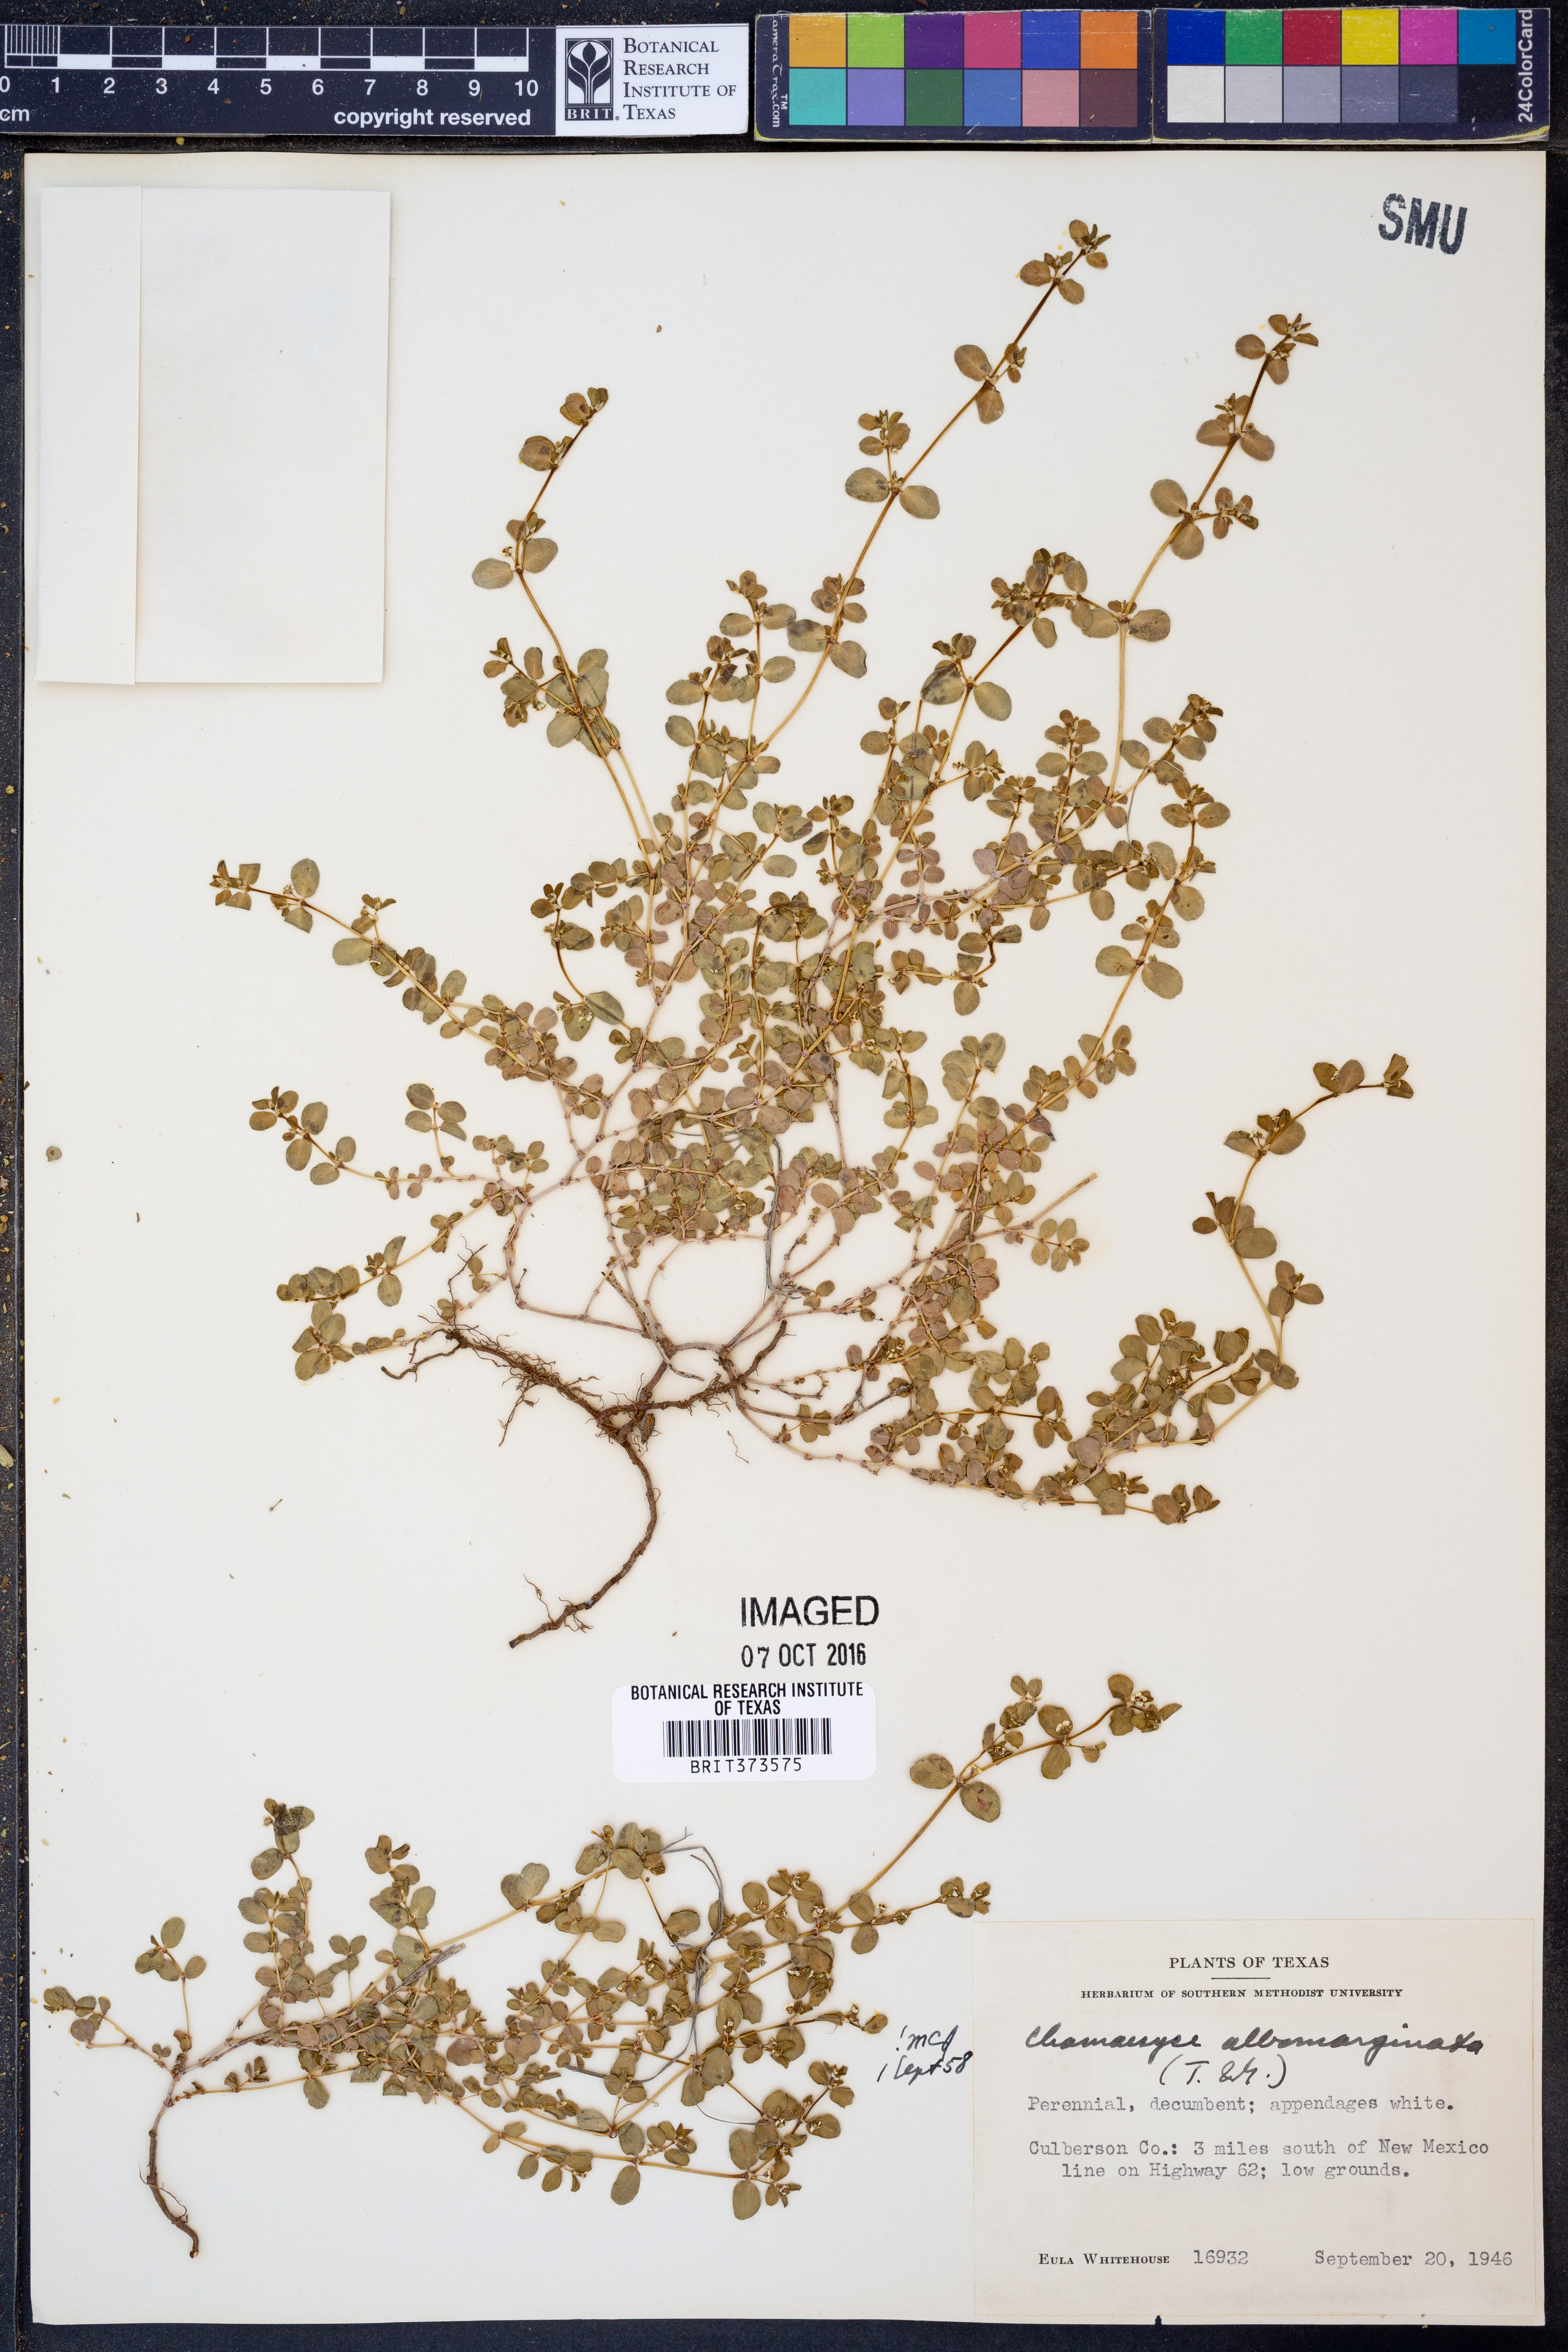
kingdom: Plantae
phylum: Tracheophyta
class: Magnoliopsida
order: Malpighiales
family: Euphorbiaceae
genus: Euphorbia
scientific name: Euphorbia albomarginata
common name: Whitemargin sandmat
